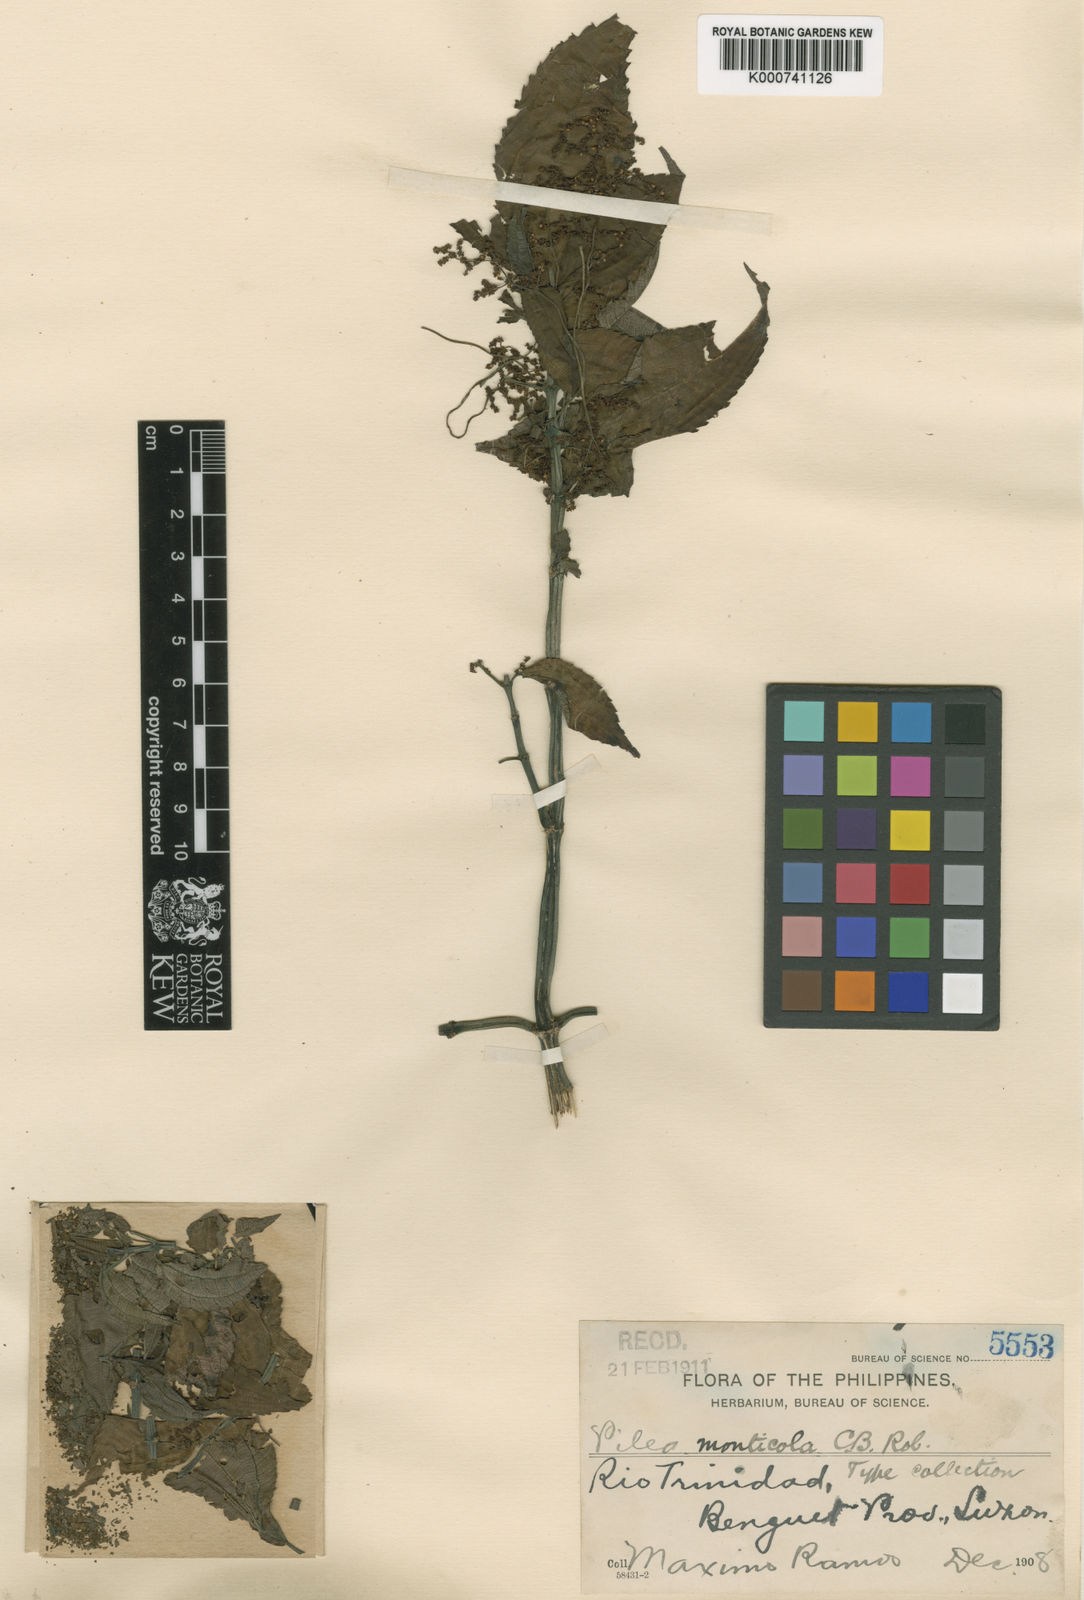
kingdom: Plantae
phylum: Tracheophyta
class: Magnoliopsida
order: Rosales
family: Urticaceae
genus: Pilea
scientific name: Pilea monticola
